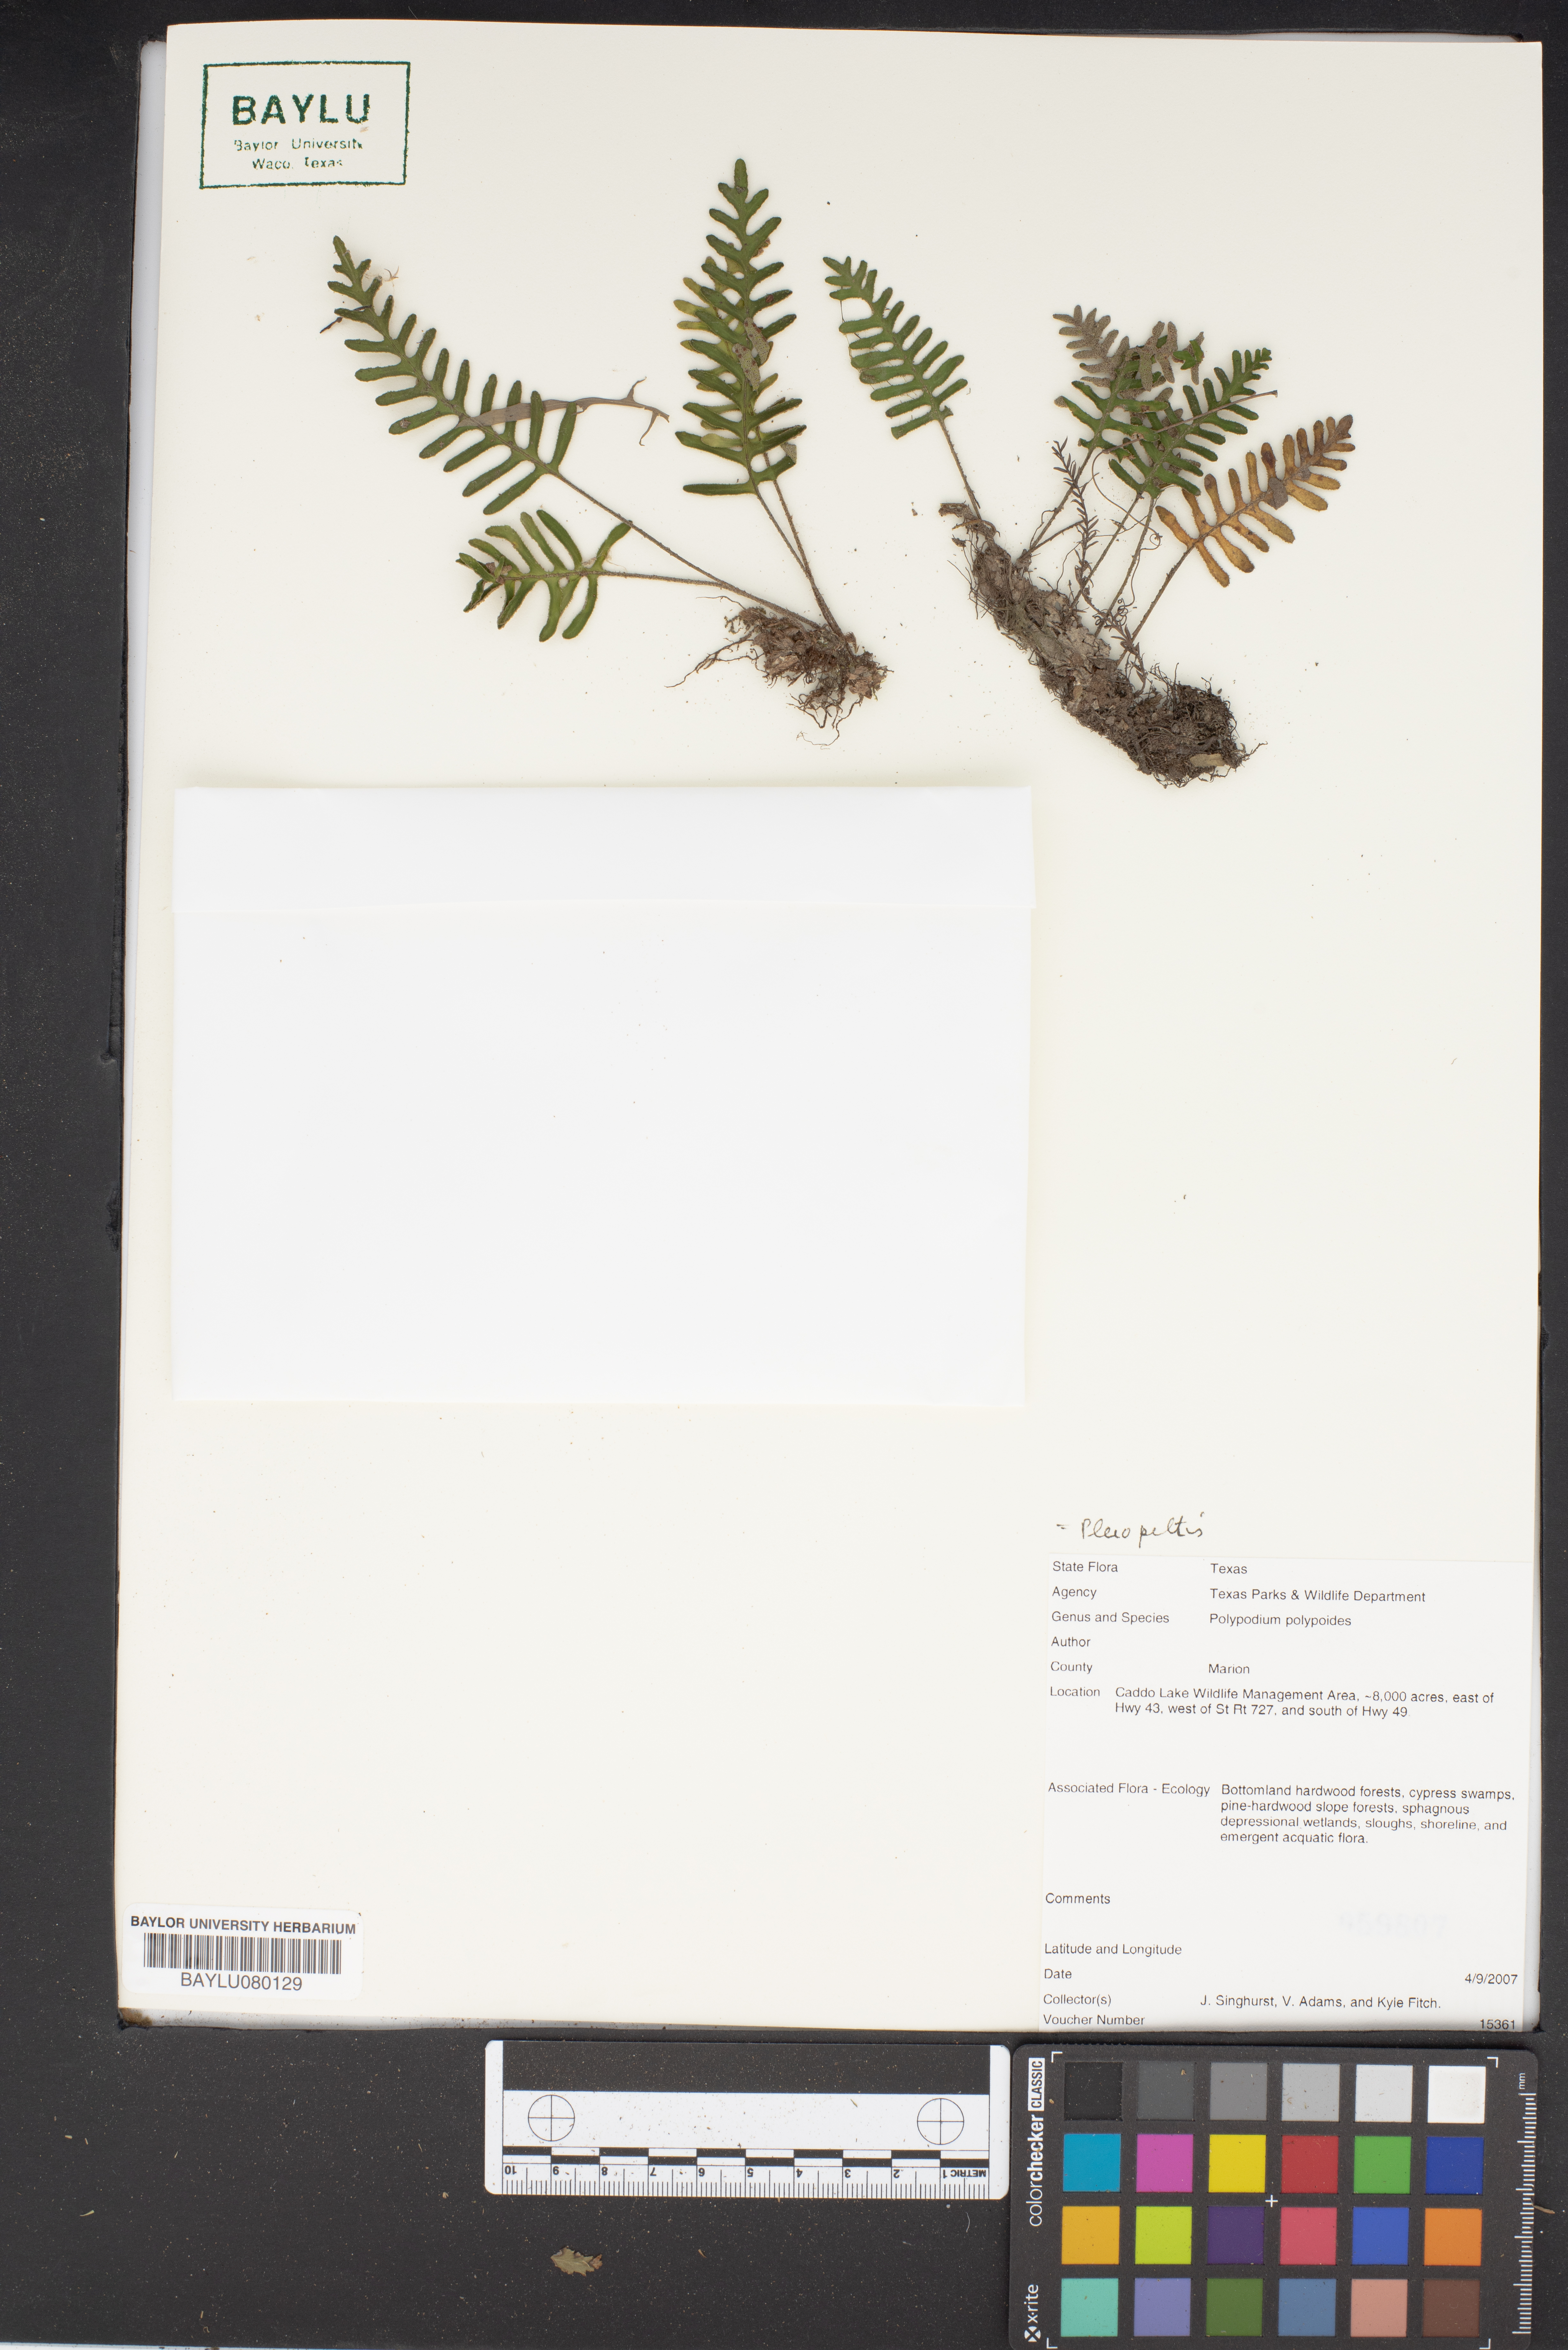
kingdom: Plantae
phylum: Tracheophyta
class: Polypodiopsida
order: Polypodiales
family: Polypodiaceae
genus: Pleopeltis
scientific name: Pleopeltis polypodioides
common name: Resurrection fern
